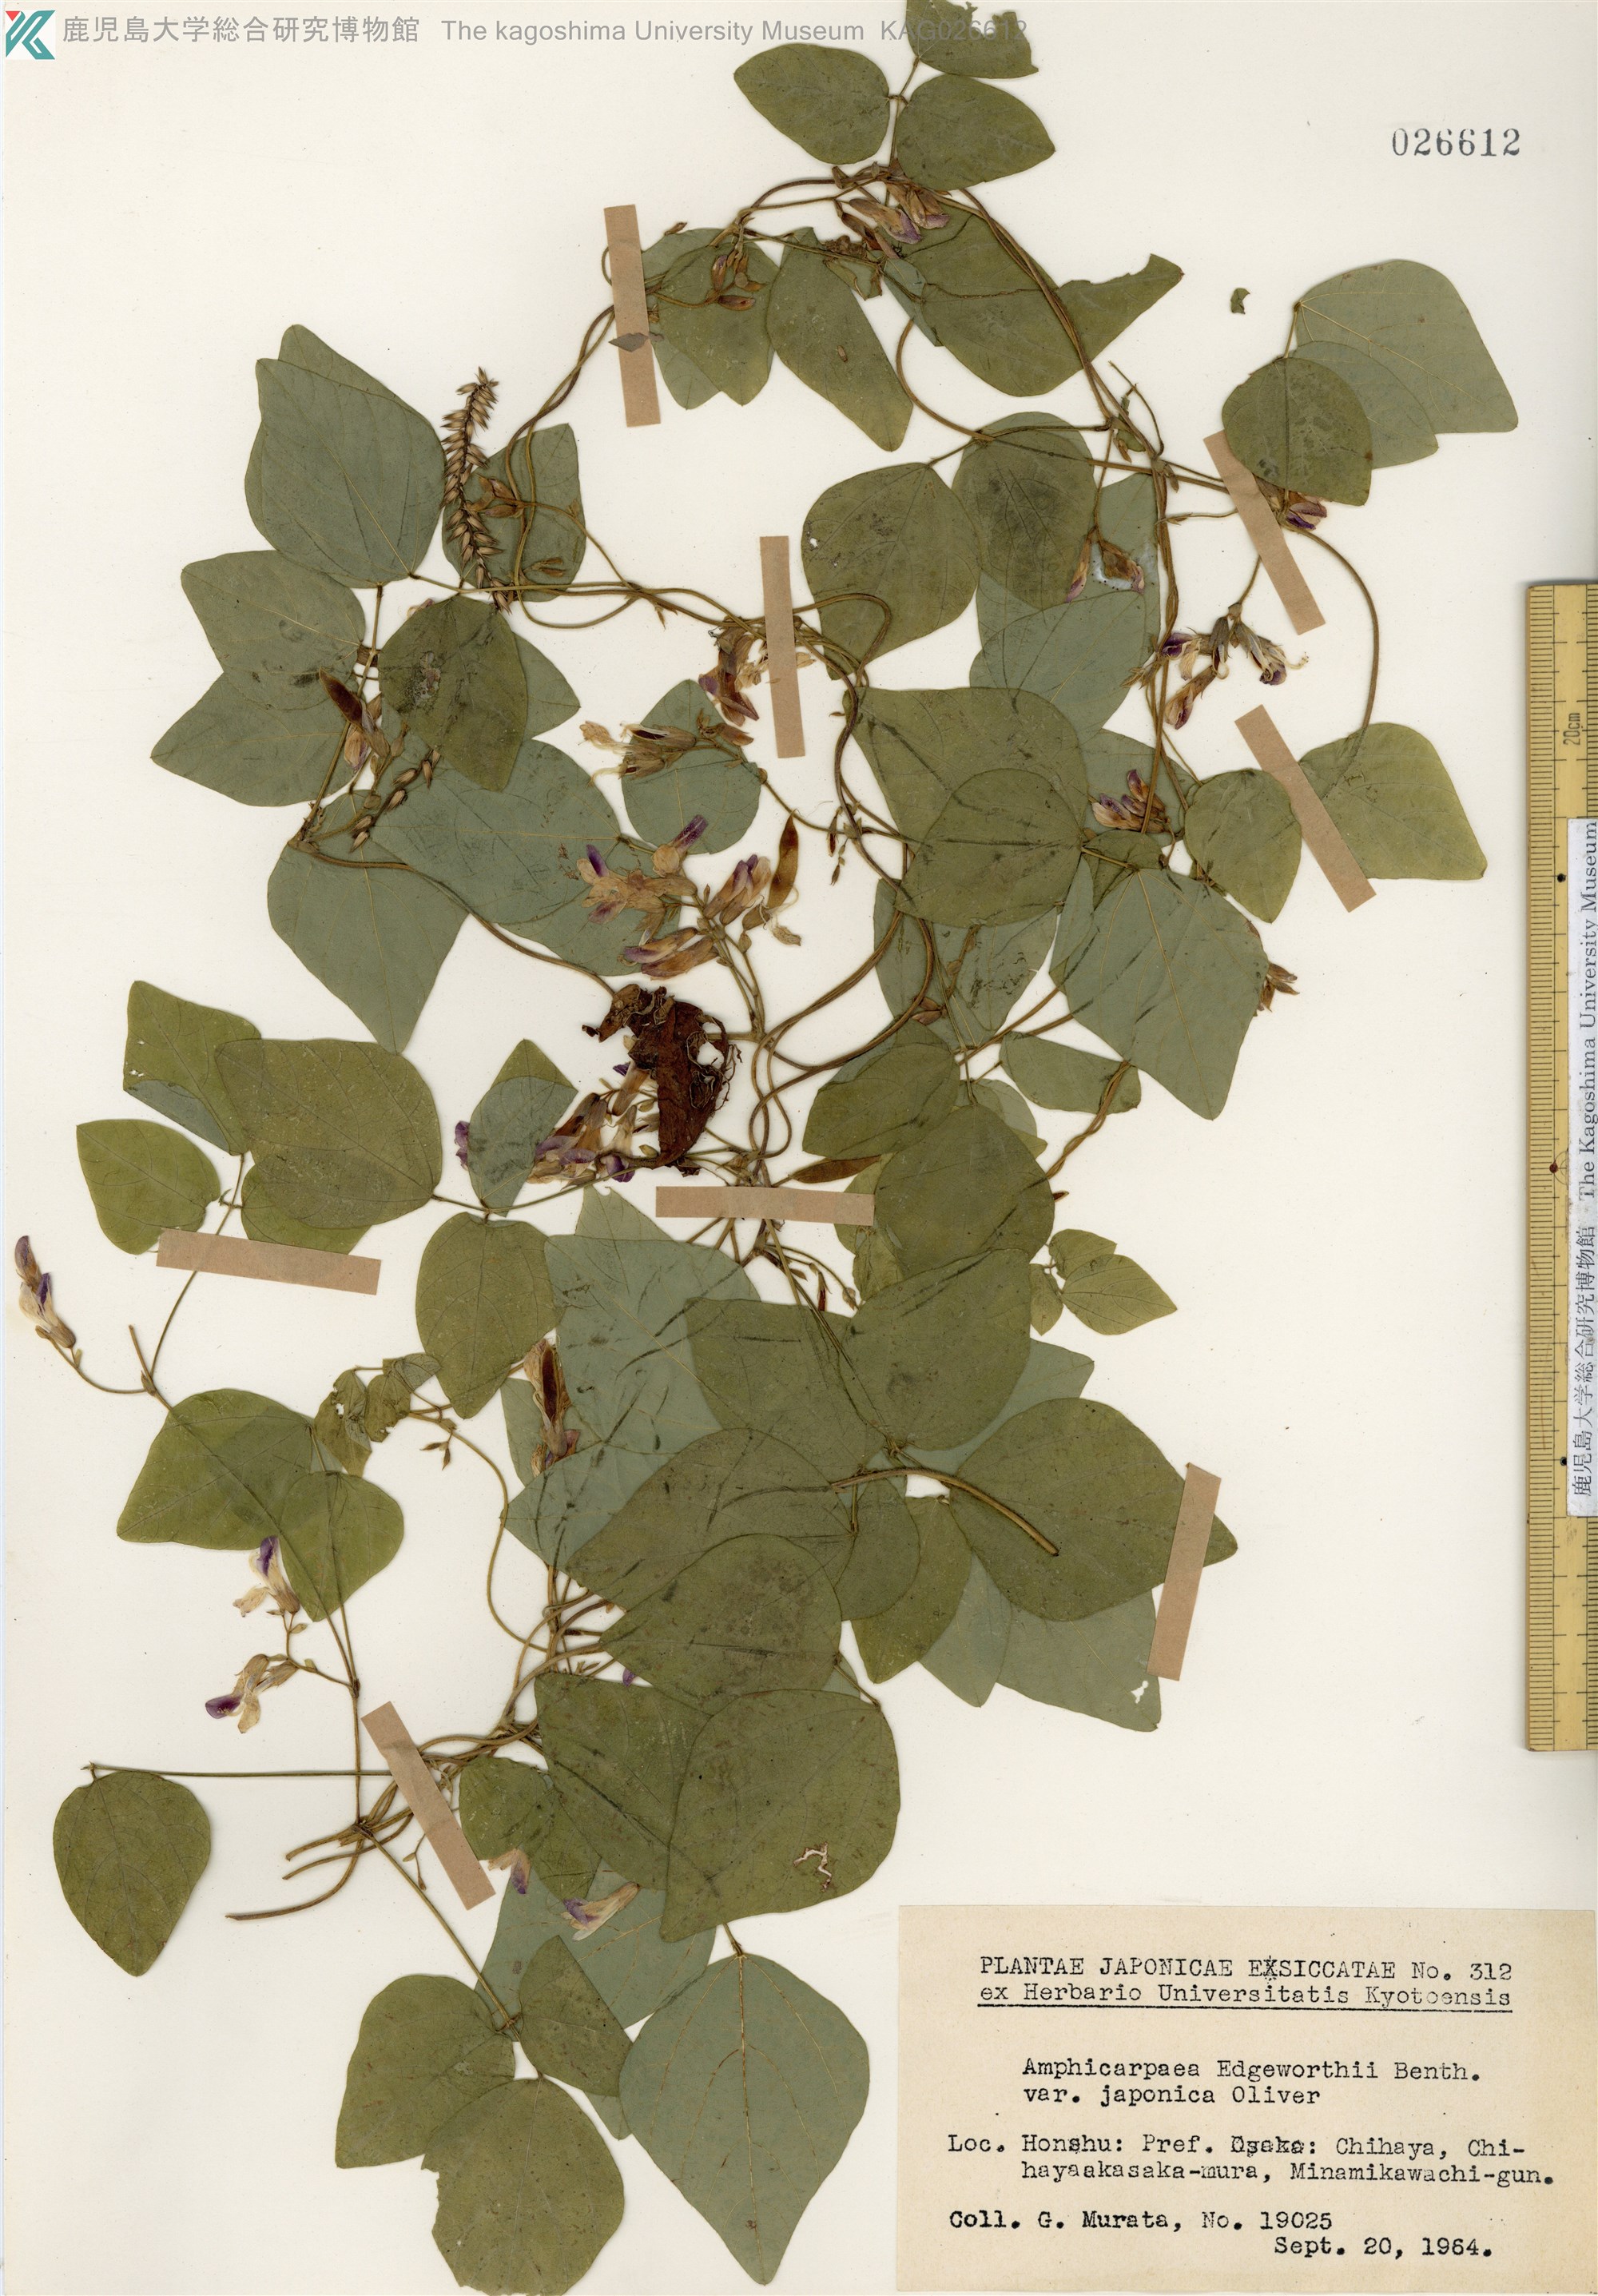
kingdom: Plantae
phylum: Tracheophyta
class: Magnoliopsida
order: Fabales
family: Fabaceae
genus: Amphicarpaea
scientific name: Amphicarpaea edgeworthii
